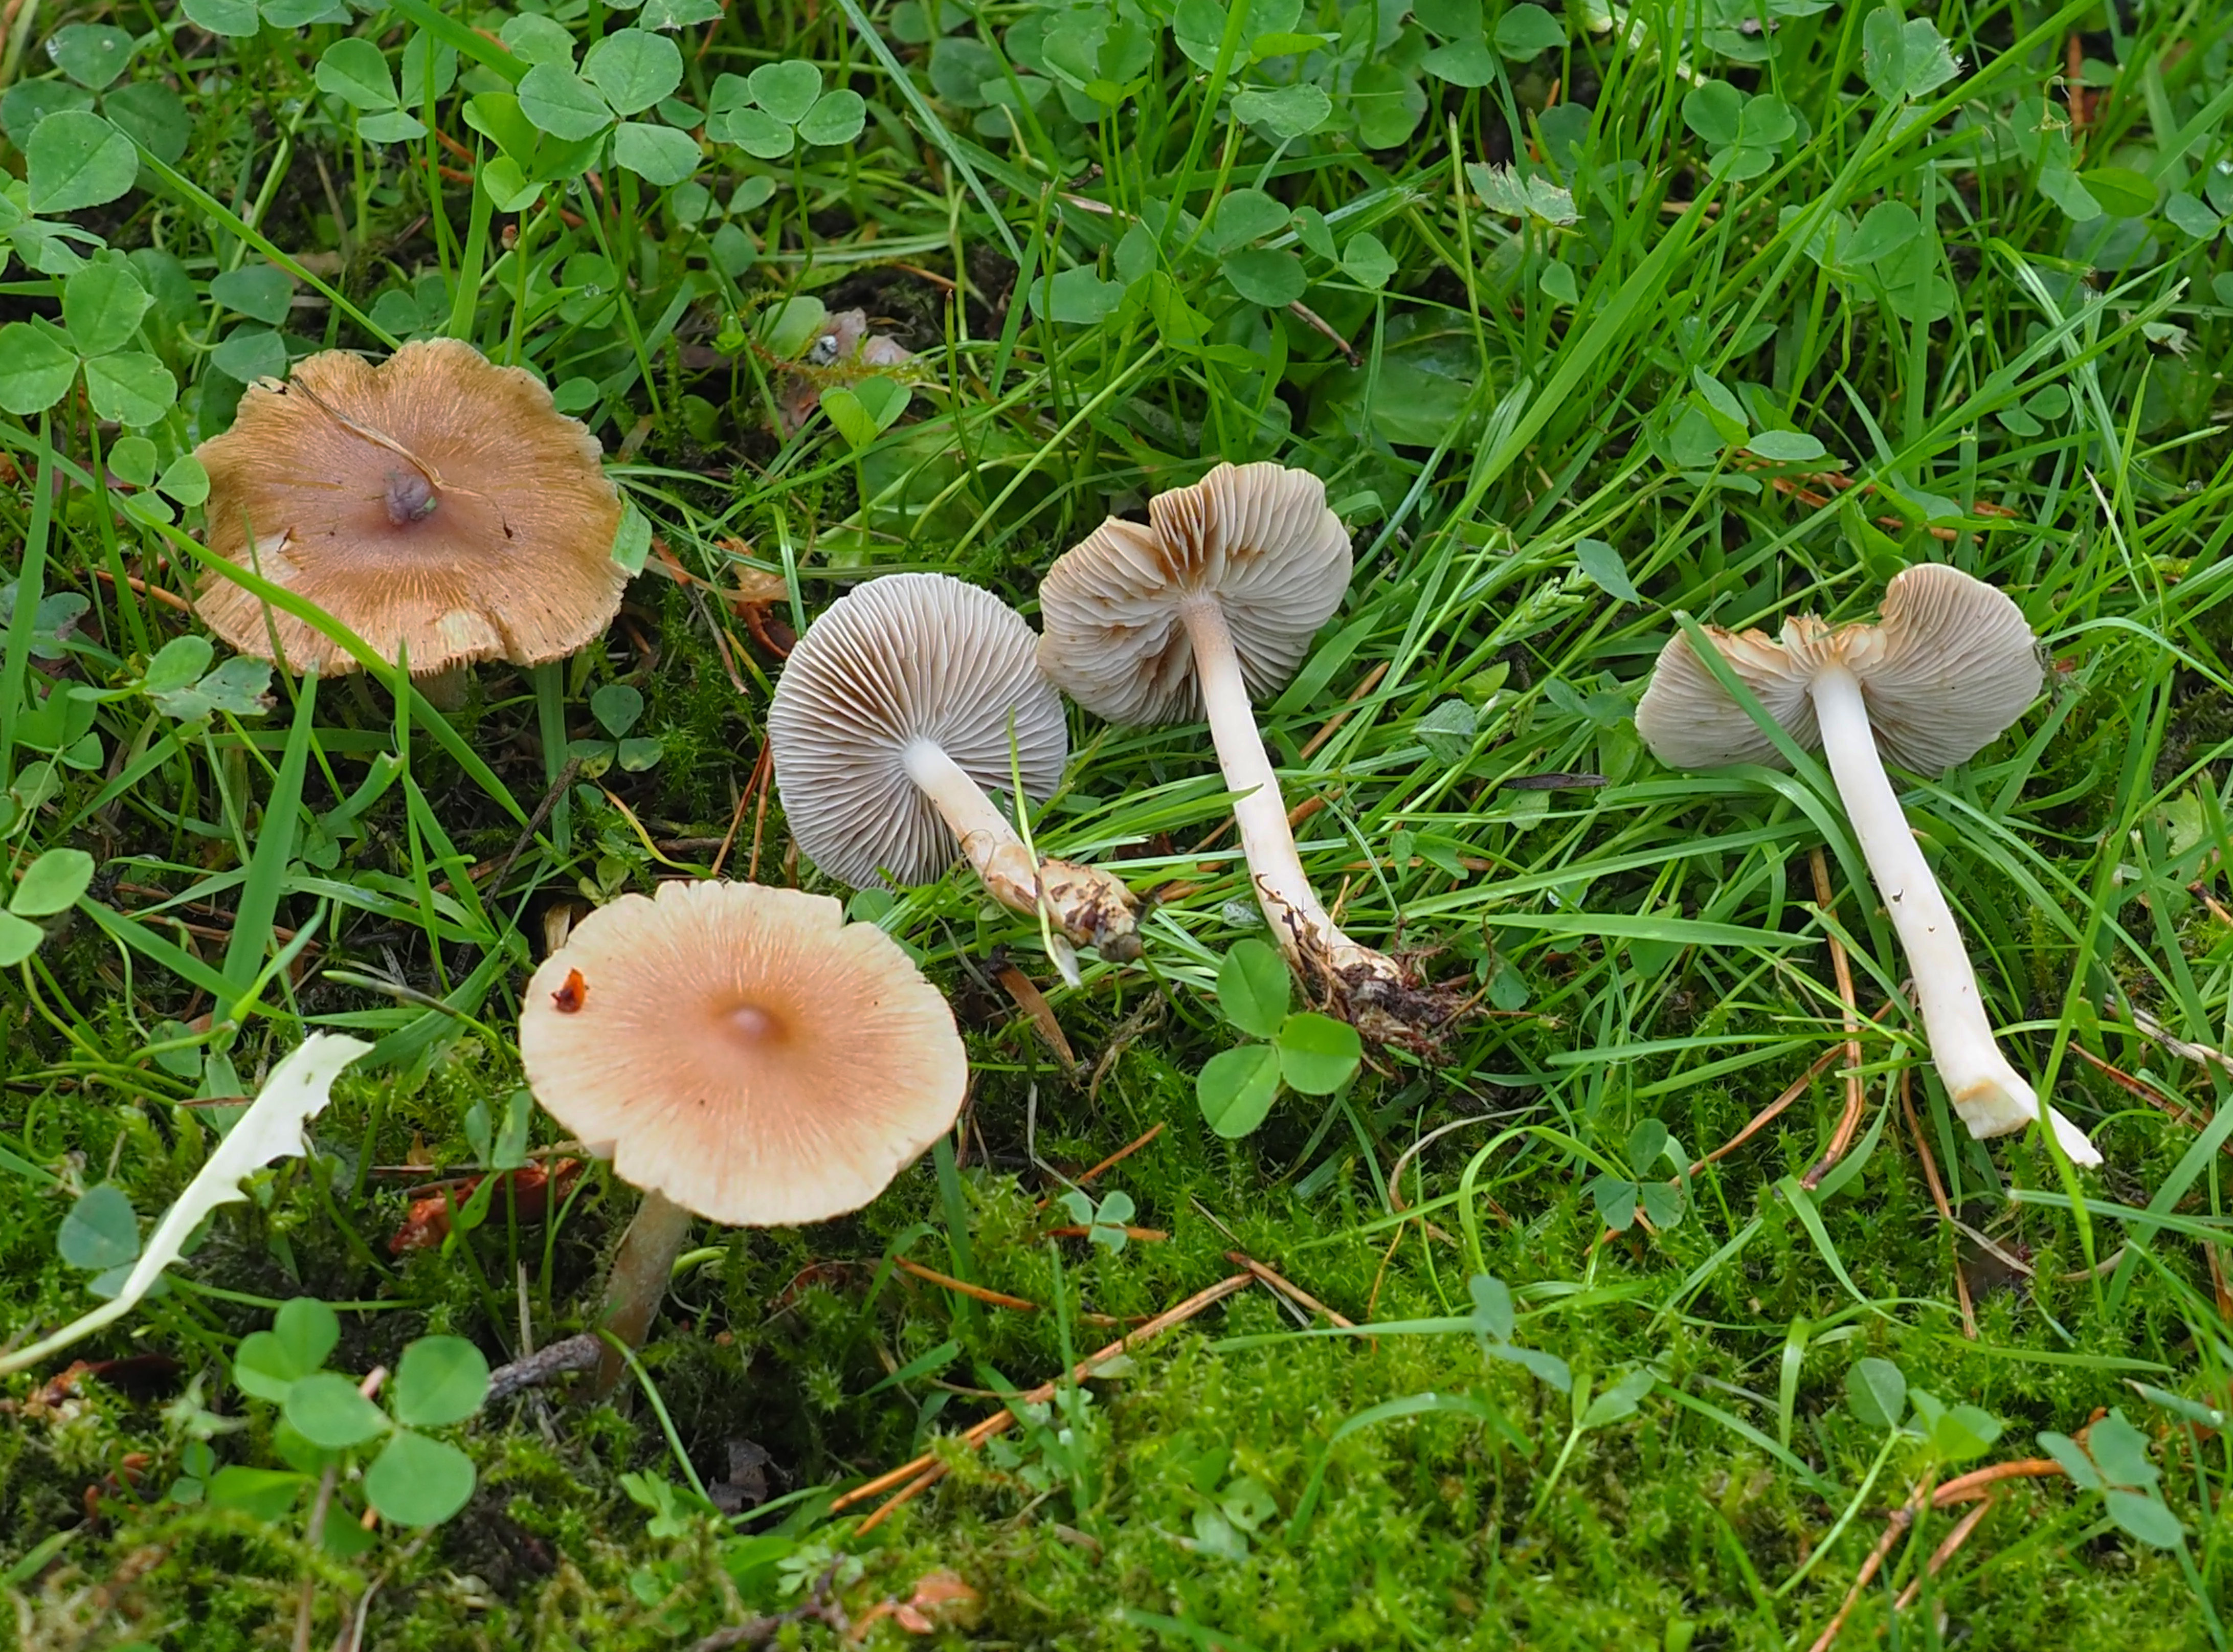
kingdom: Fungi
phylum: Basidiomycota
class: Agaricomycetes
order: Agaricales
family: Inocybaceae
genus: Inocybe
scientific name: Inocybe
